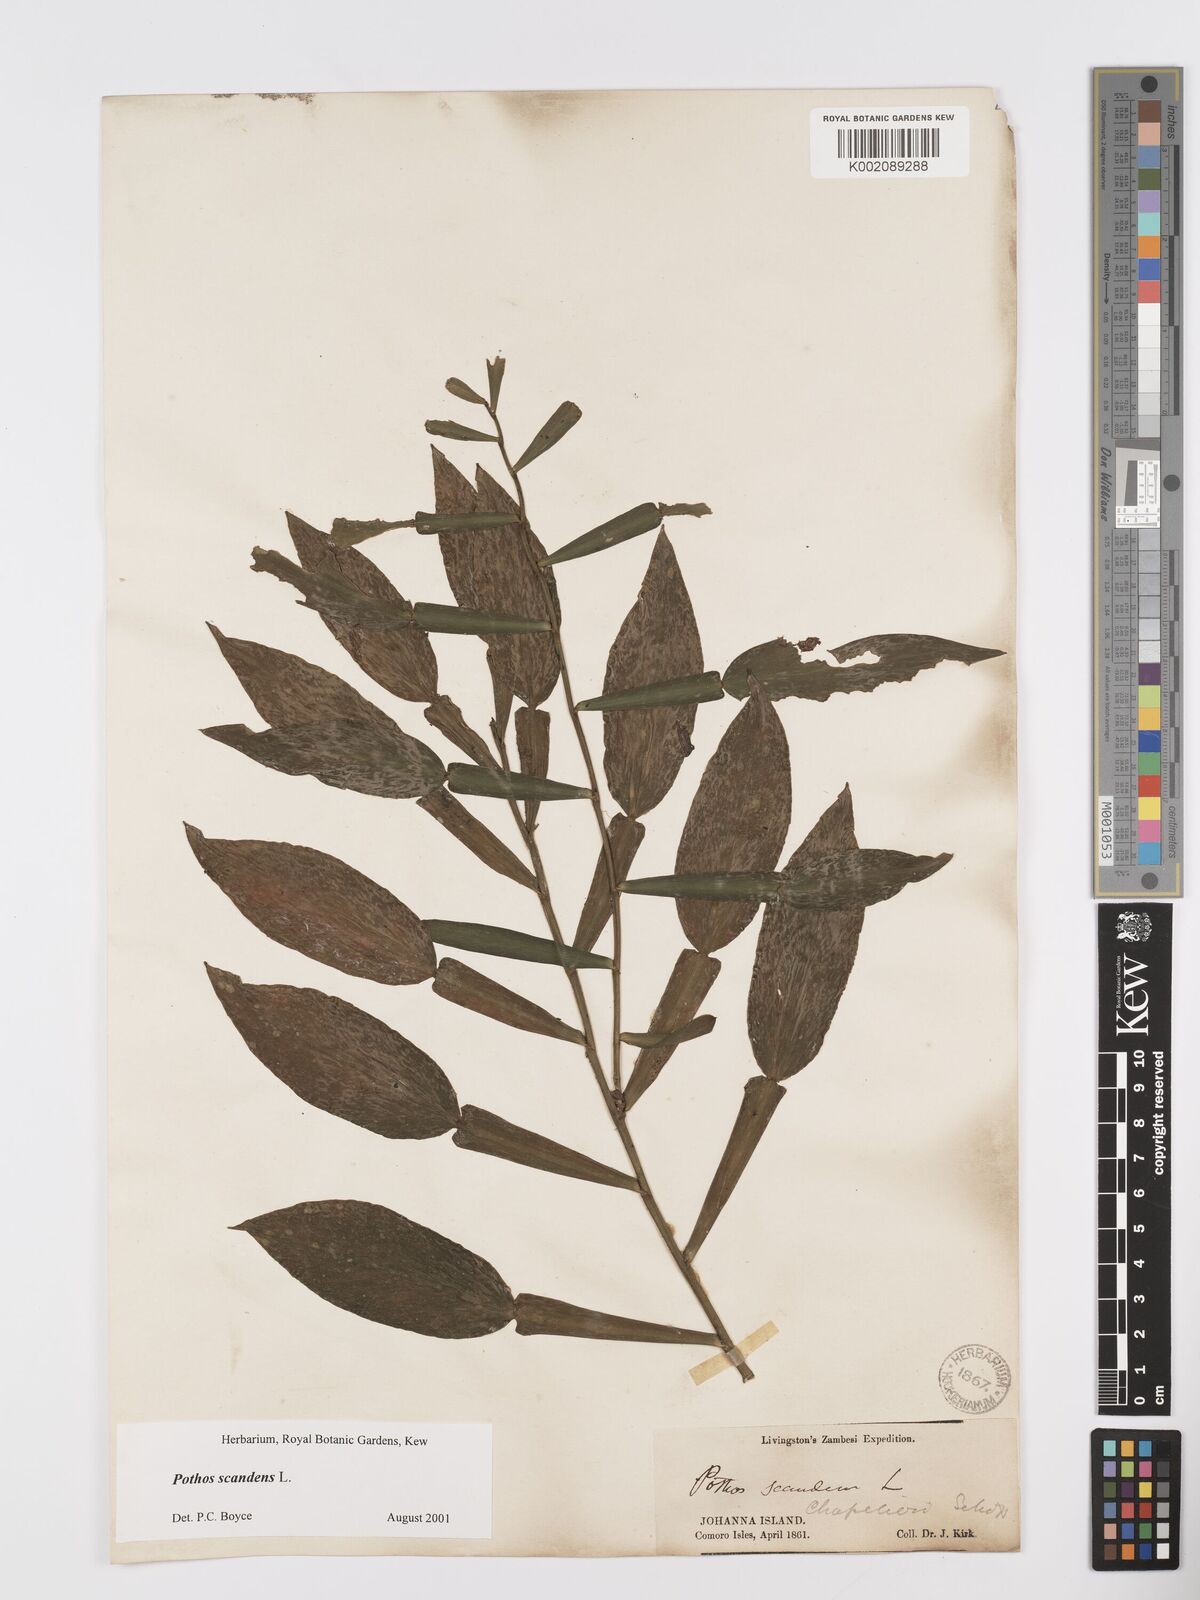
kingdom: Plantae
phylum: Tracheophyta
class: Liliopsida
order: Alismatales
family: Araceae
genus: Pothos
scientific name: Pothos scandens
